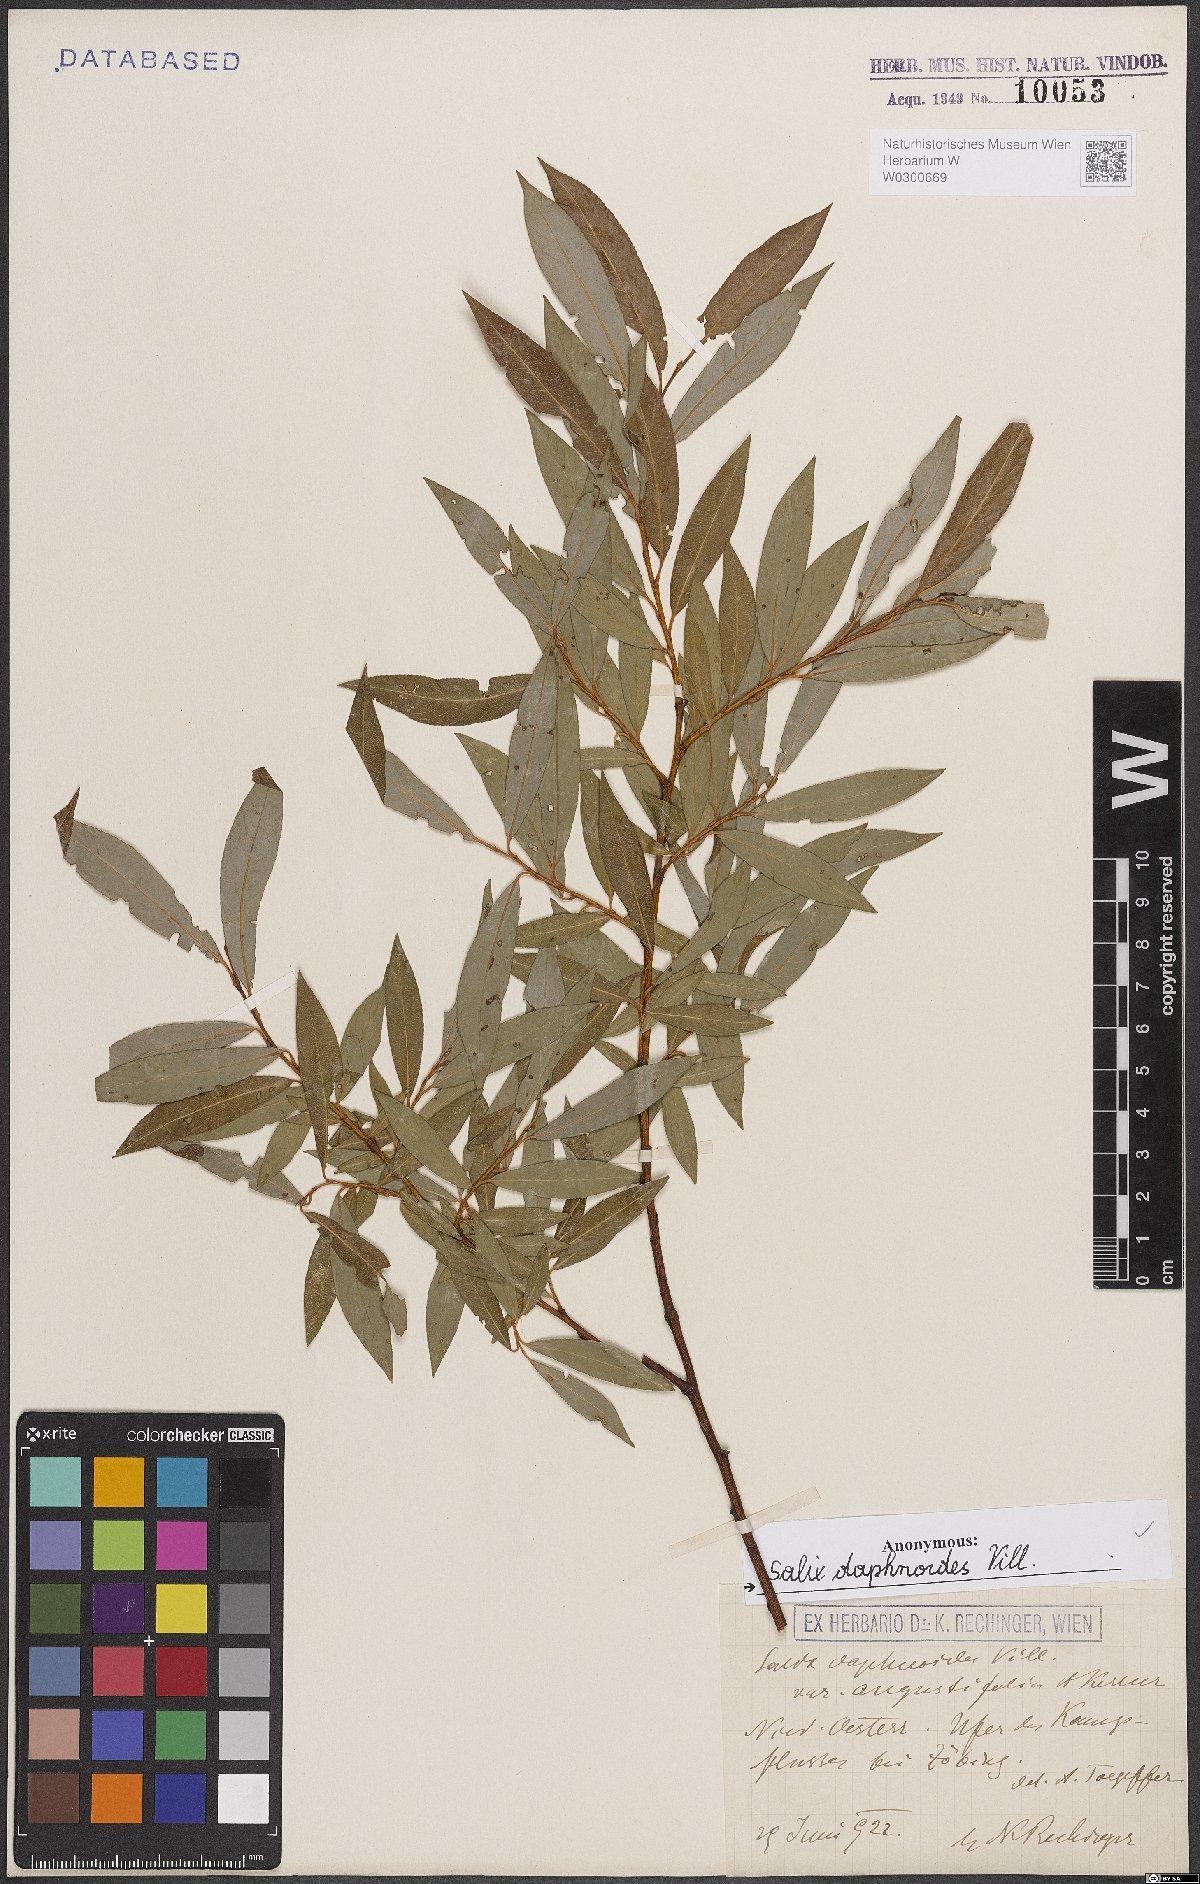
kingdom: Plantae
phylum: Tracheophyta
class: Magnoliopsida
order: Malpighiales
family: Salicaceae
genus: Salix
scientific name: Salix daphnoides
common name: European violet-willow
